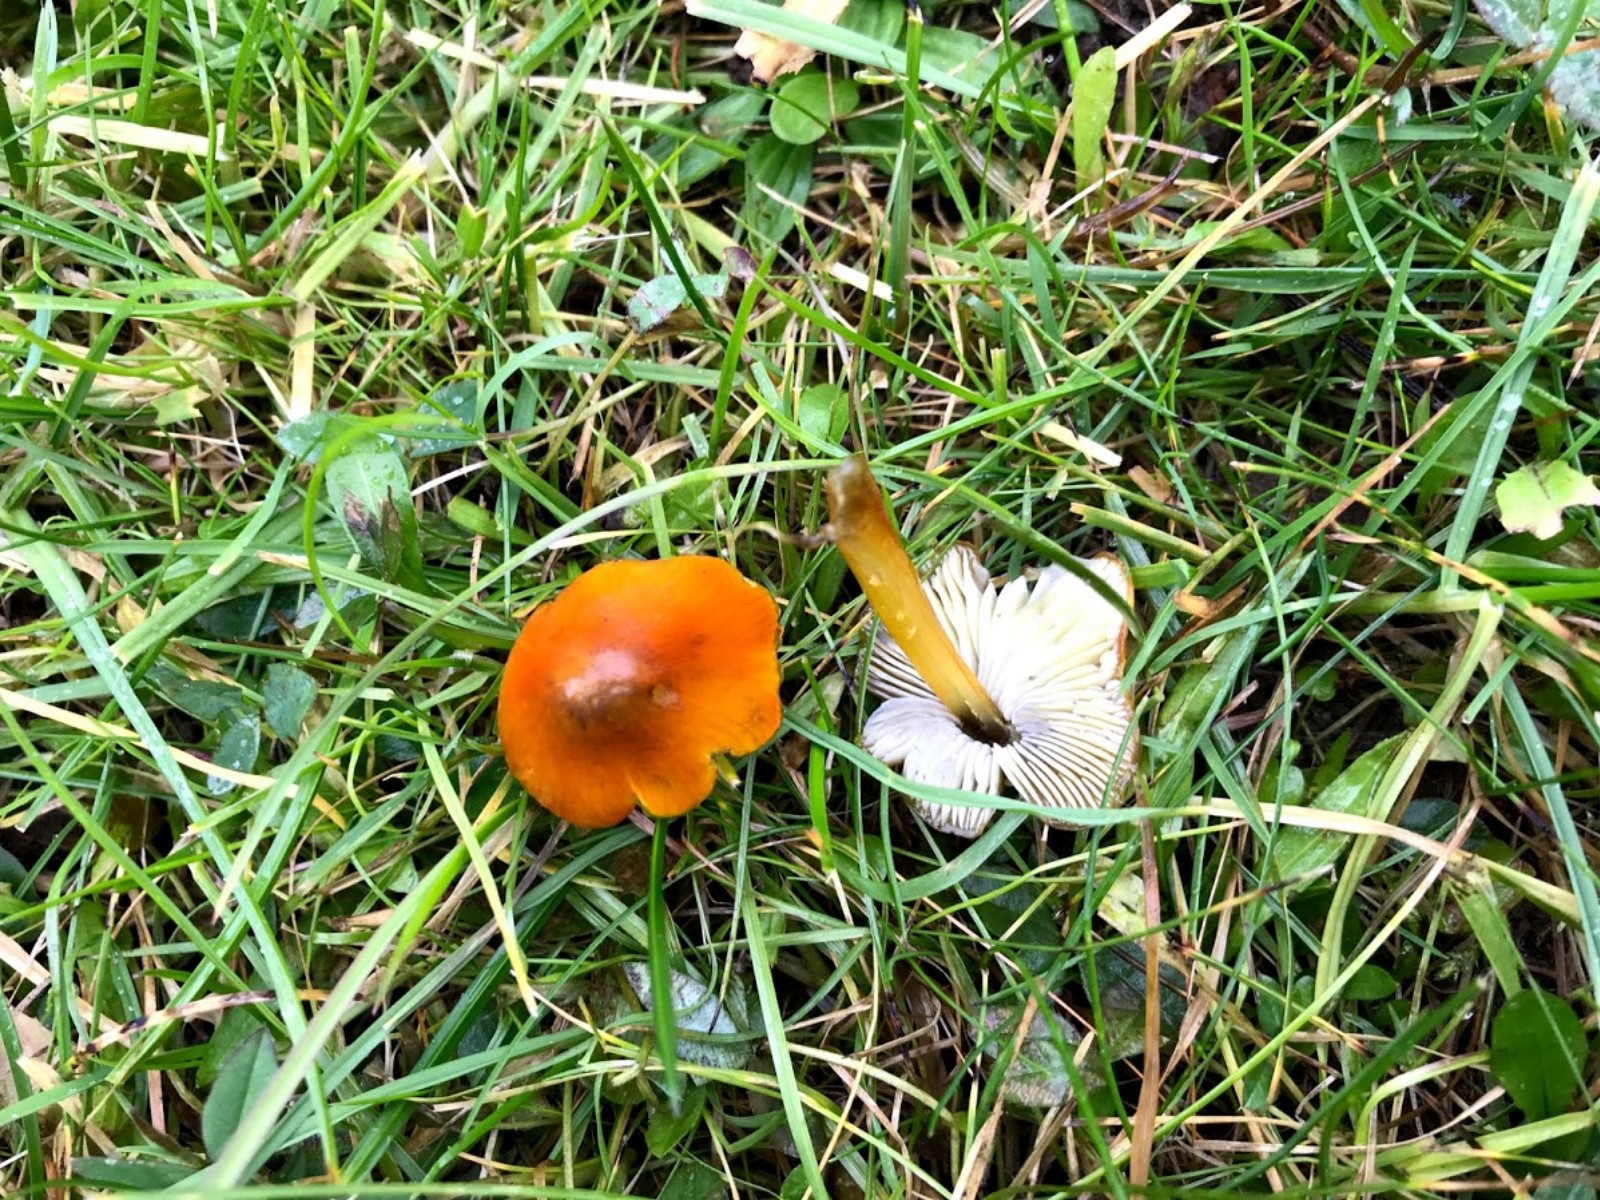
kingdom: Fungi
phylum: Basidiomycota
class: Agaricomycetes
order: Agaricales
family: Hygrophoraceae
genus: Hygrocybe
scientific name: Hygrocybe conica
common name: kegle-vokshat
